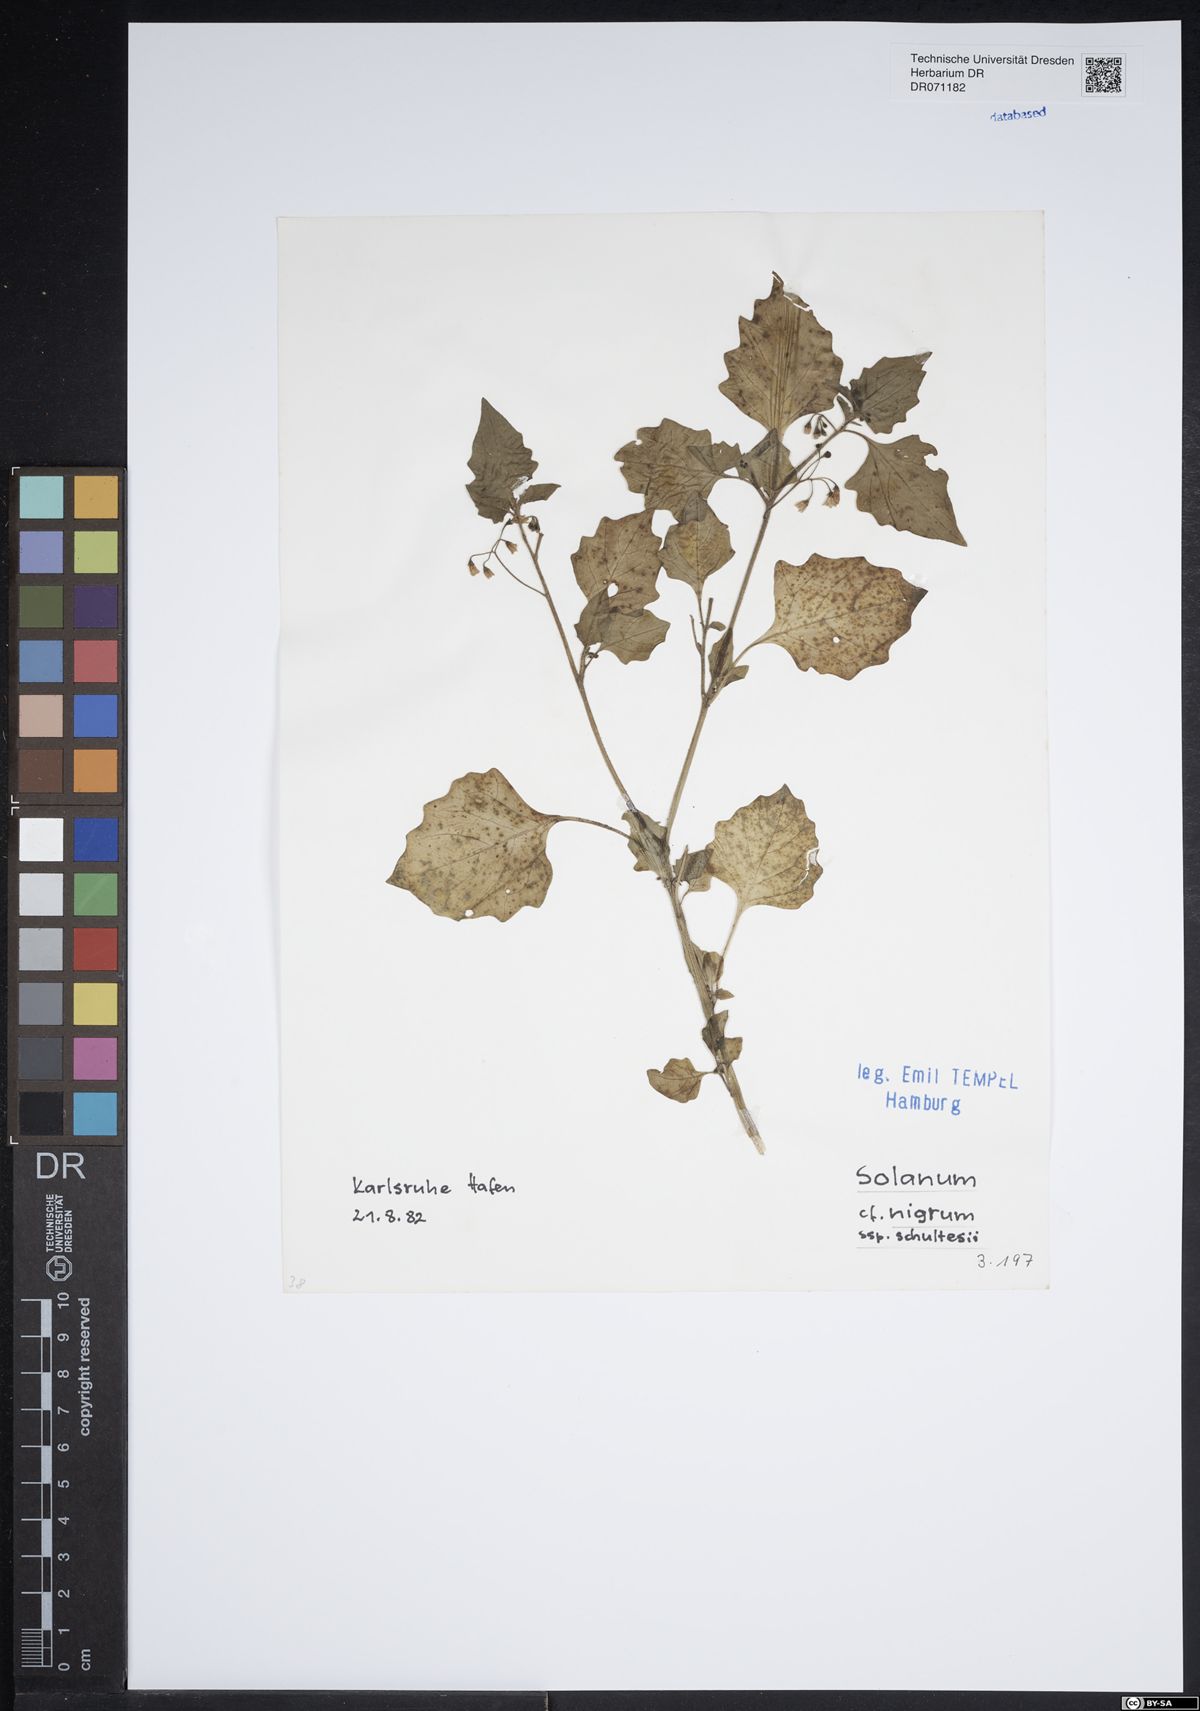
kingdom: Plantae
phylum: Tracheophyta
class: Magnoliopsida
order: Solanales
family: Solanaceae
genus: Solanum
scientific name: Solanum decipiens
